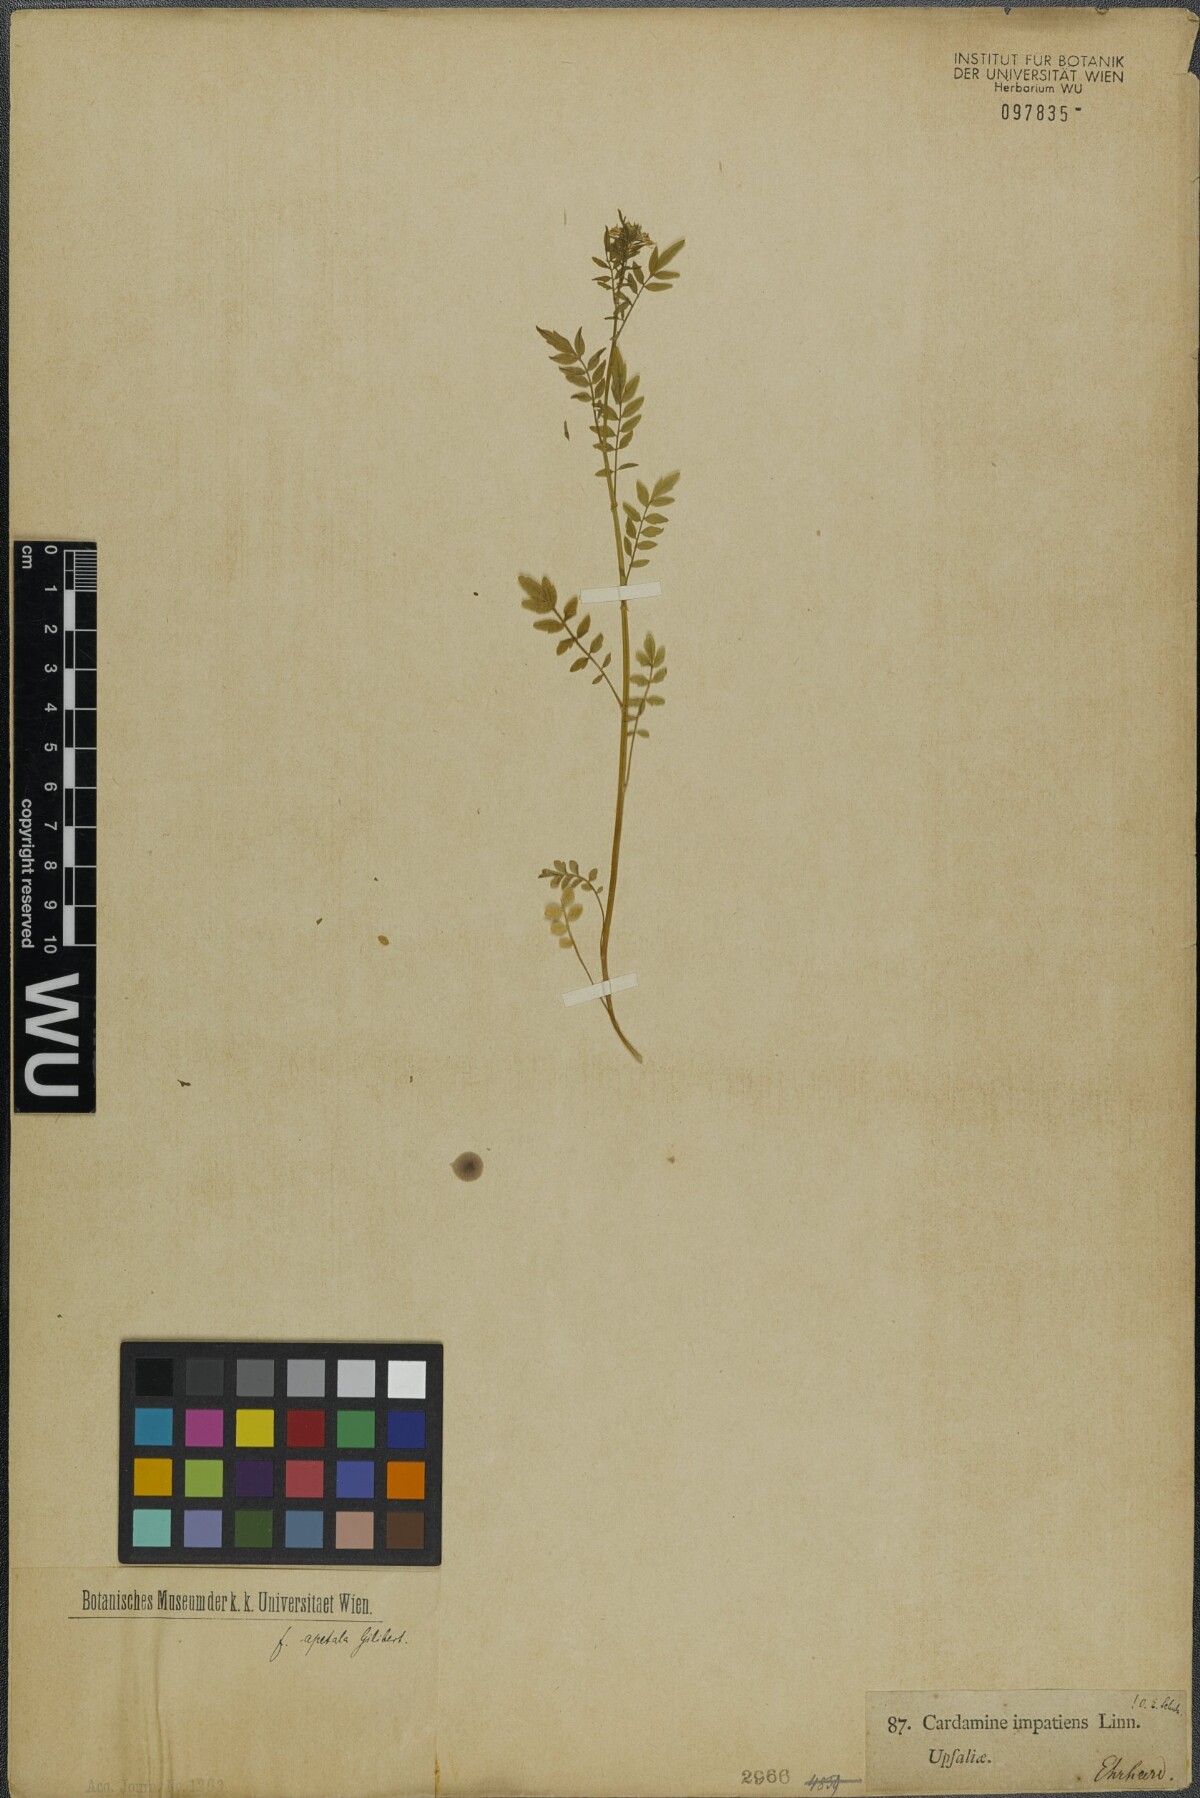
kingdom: Plantae
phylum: Tracheophyta
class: Magnoliopsida
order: Brassicales
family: Brassicaceae
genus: Cardamine
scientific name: Cardamine impatiens
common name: Narrow-leaved bitter-cress
